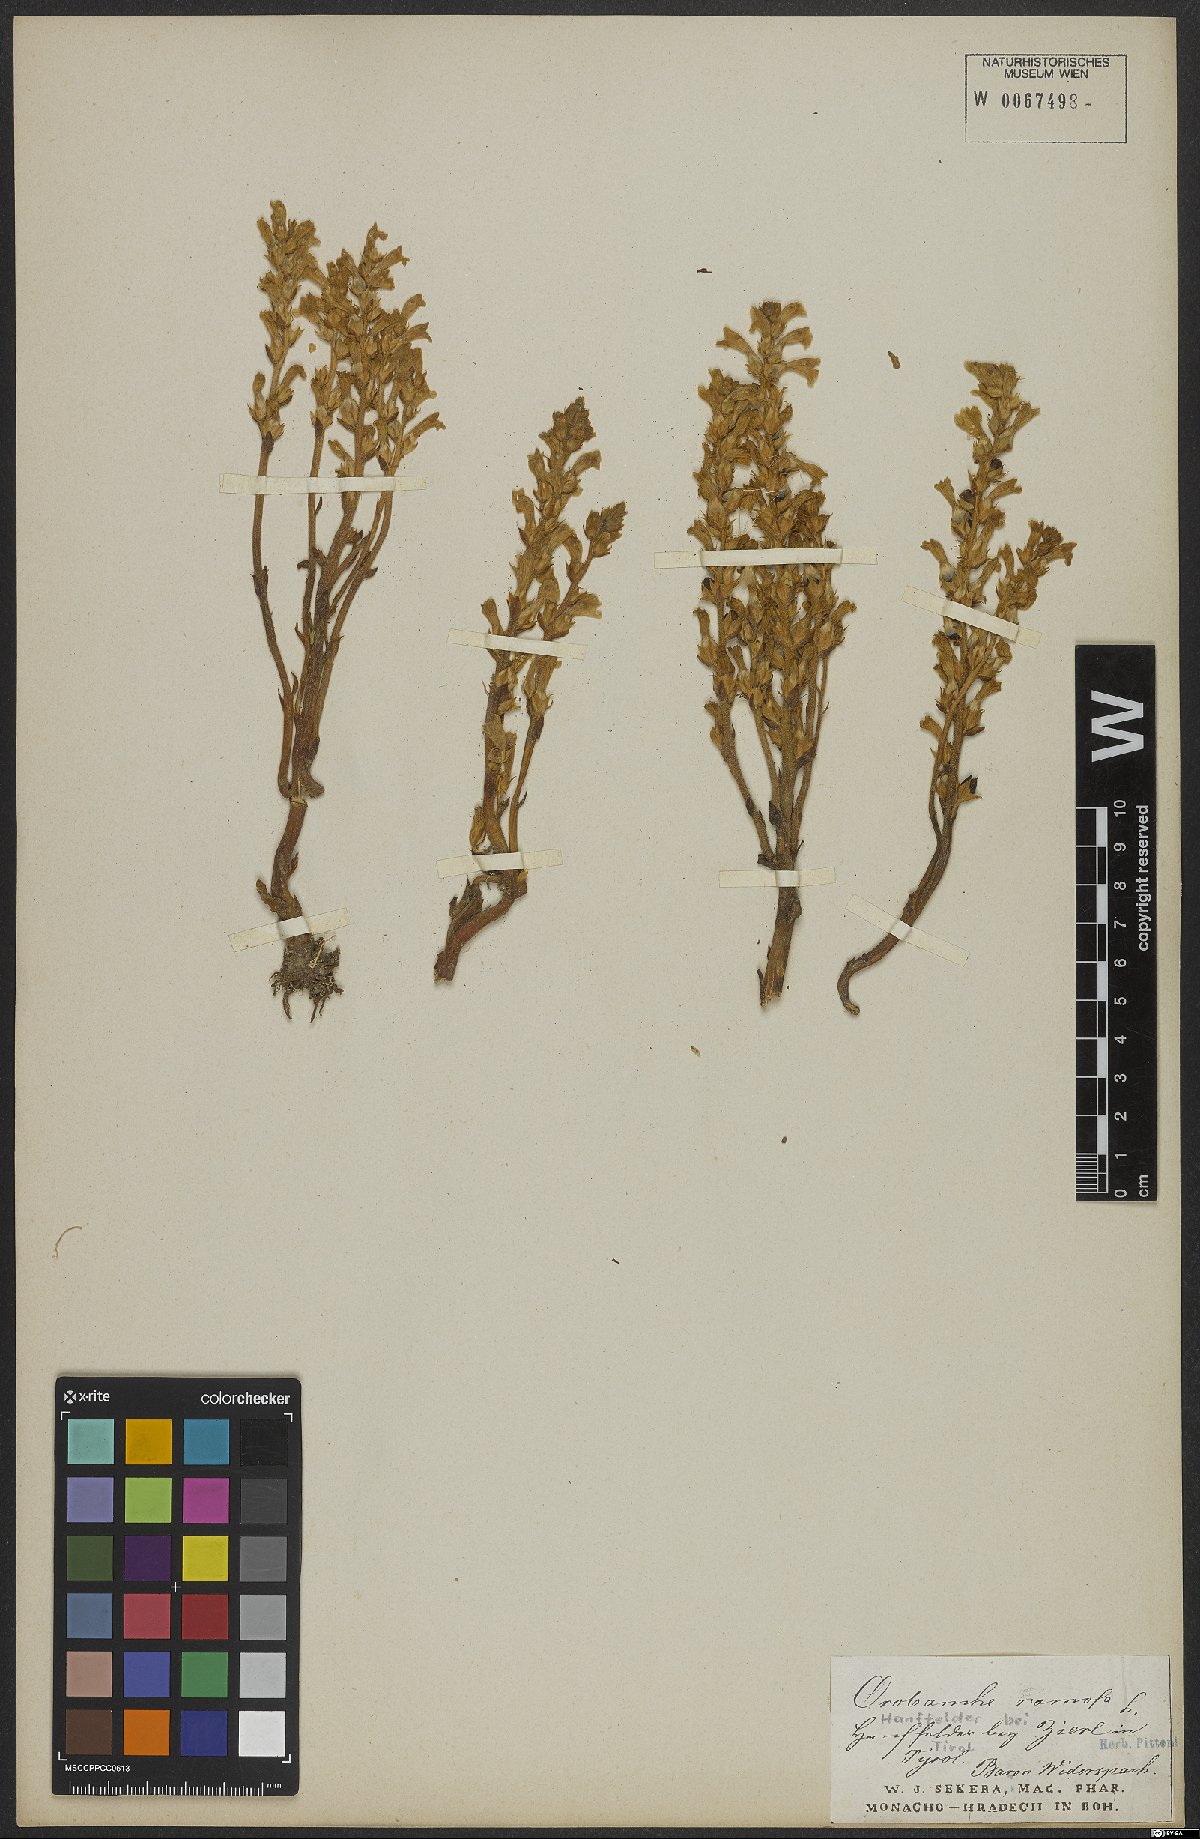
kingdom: Plantae
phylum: Tracheophyta
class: Magnoliopsida
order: Lamiales
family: Orobanchaceae
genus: Phelipanche
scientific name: Phelipanche ramosa
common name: Branched broomrape
